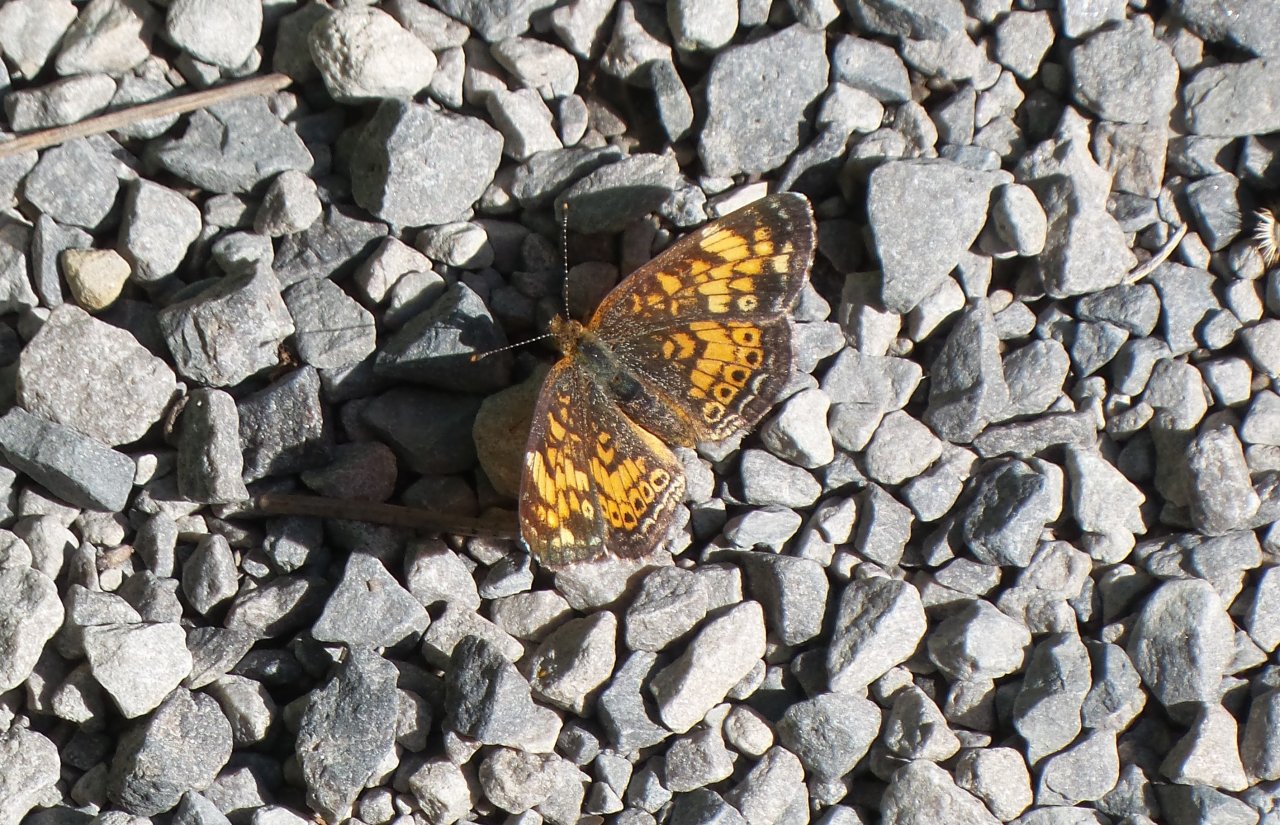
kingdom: Animalia
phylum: Arthropoda
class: Insecta
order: Lepidoptera
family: Nymphalidae
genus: Phyciodes
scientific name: Phyciodes tharos
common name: Pearl Crescent
